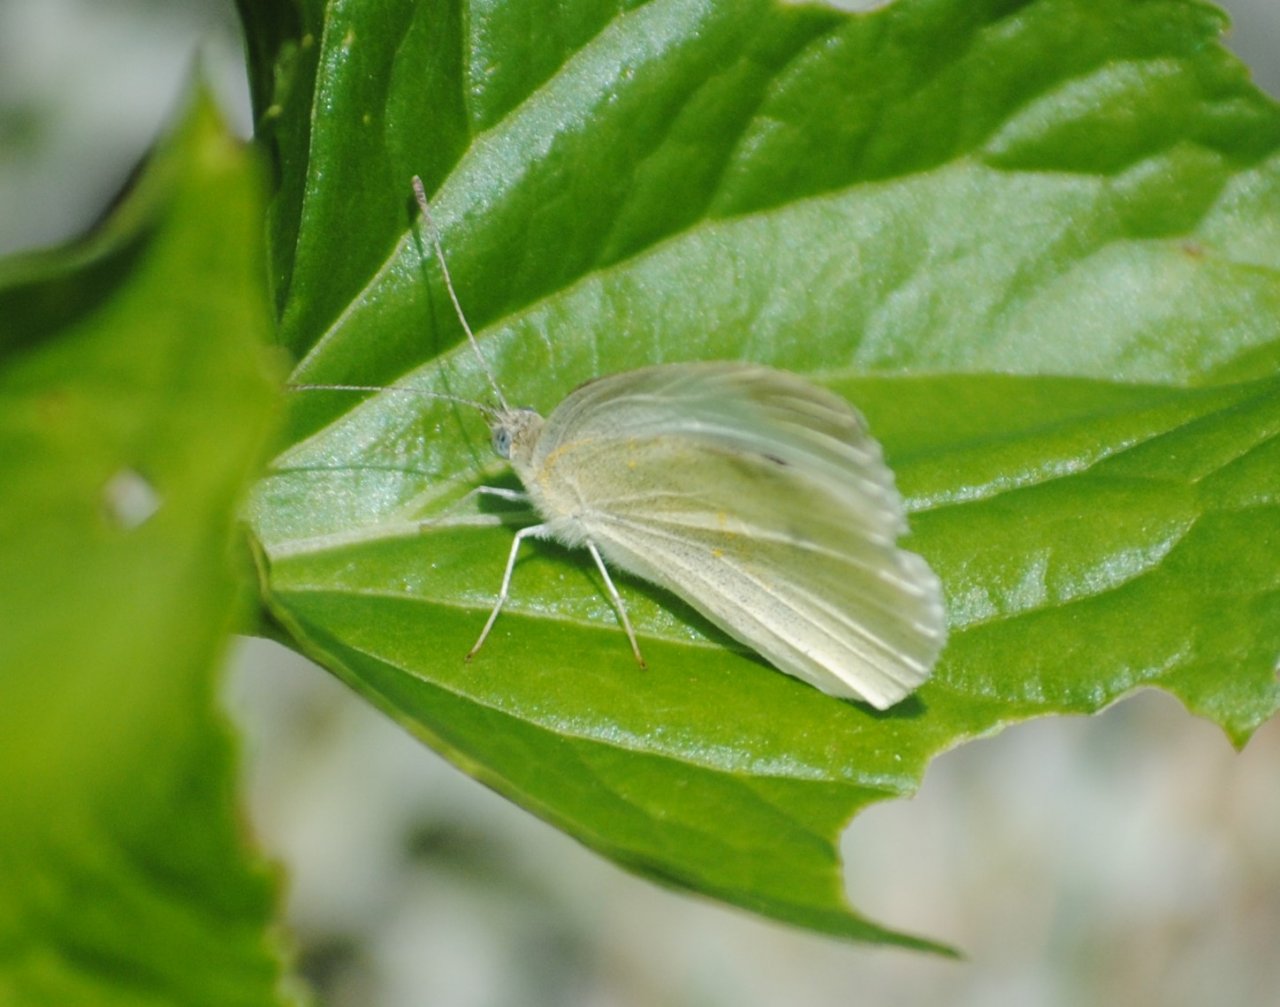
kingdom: Animalia
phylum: Arthropoda
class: Insecta
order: Lepidoptera
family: Pieridae
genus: Pieris
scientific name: Pieris rapae
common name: Cabbage White
